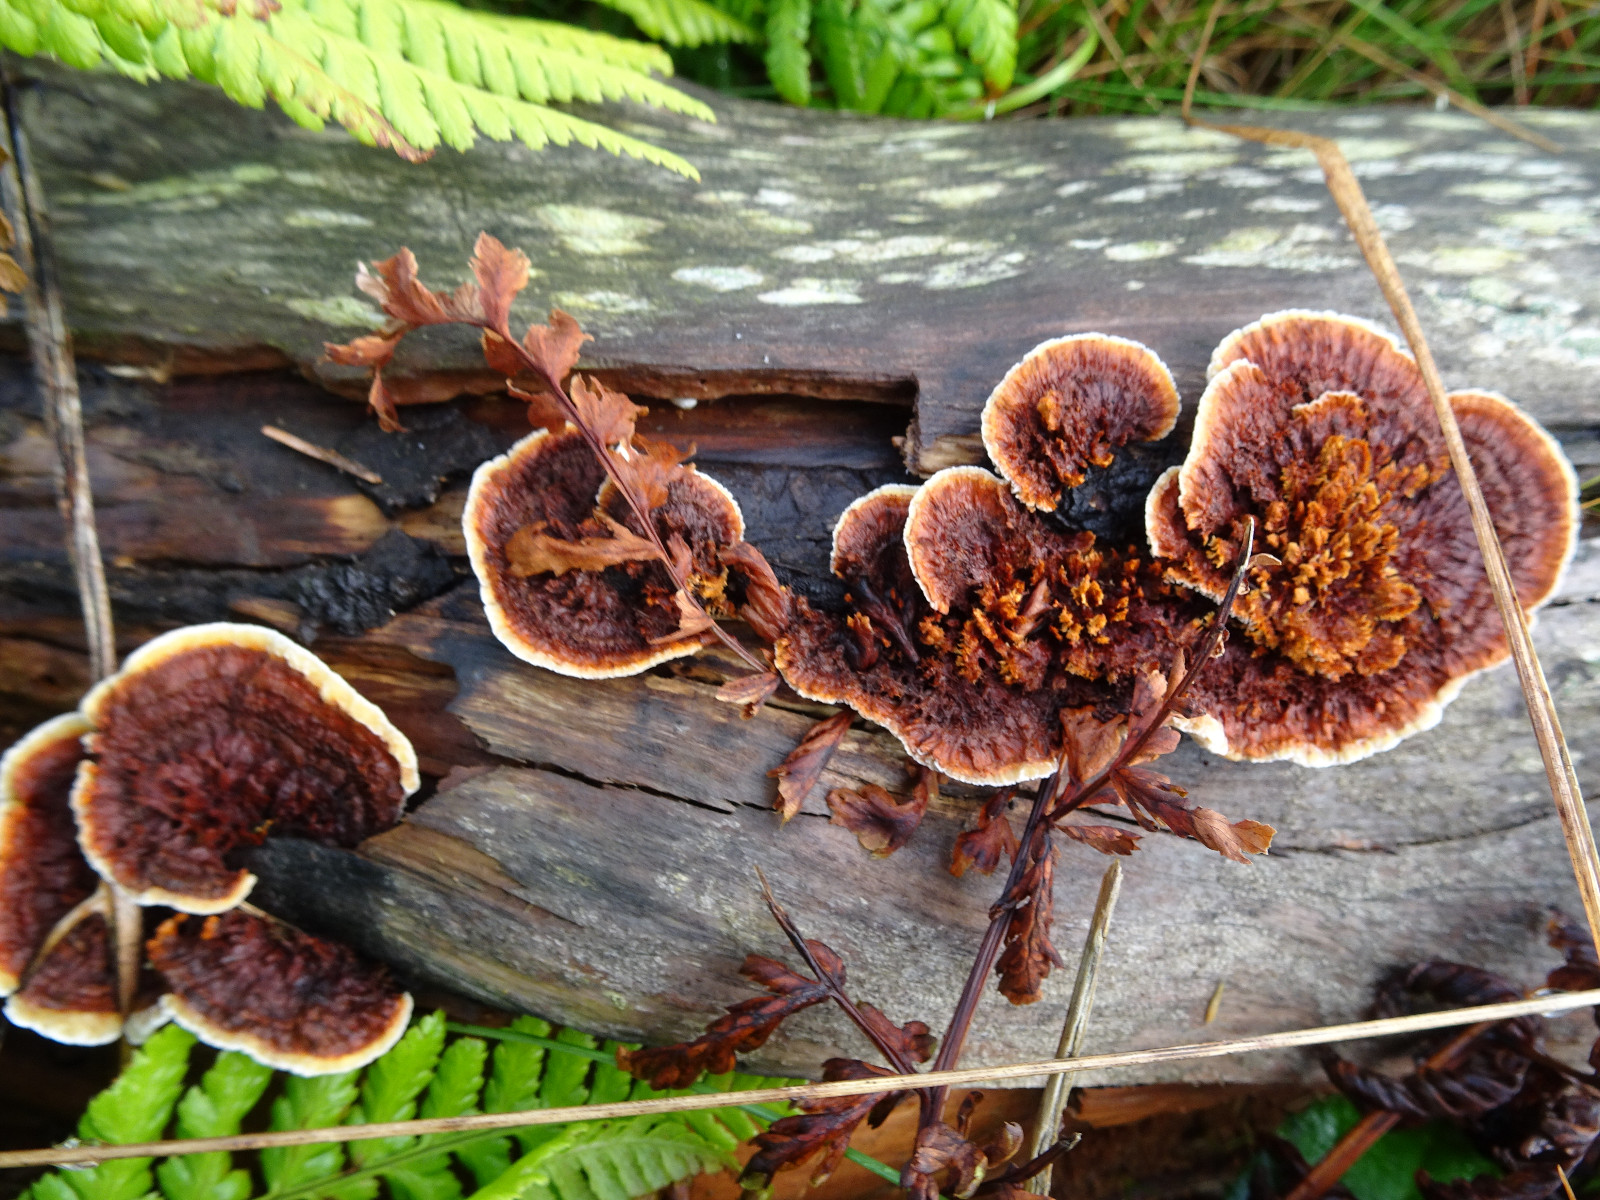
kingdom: Fungi
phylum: Basidiomycota
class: Agaricomycetes
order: Gloeophyllales
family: Gloeophyllaceae
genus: Gloeophyllum
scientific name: Gloeophyllum sepiarium
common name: fyrre-korkhat
